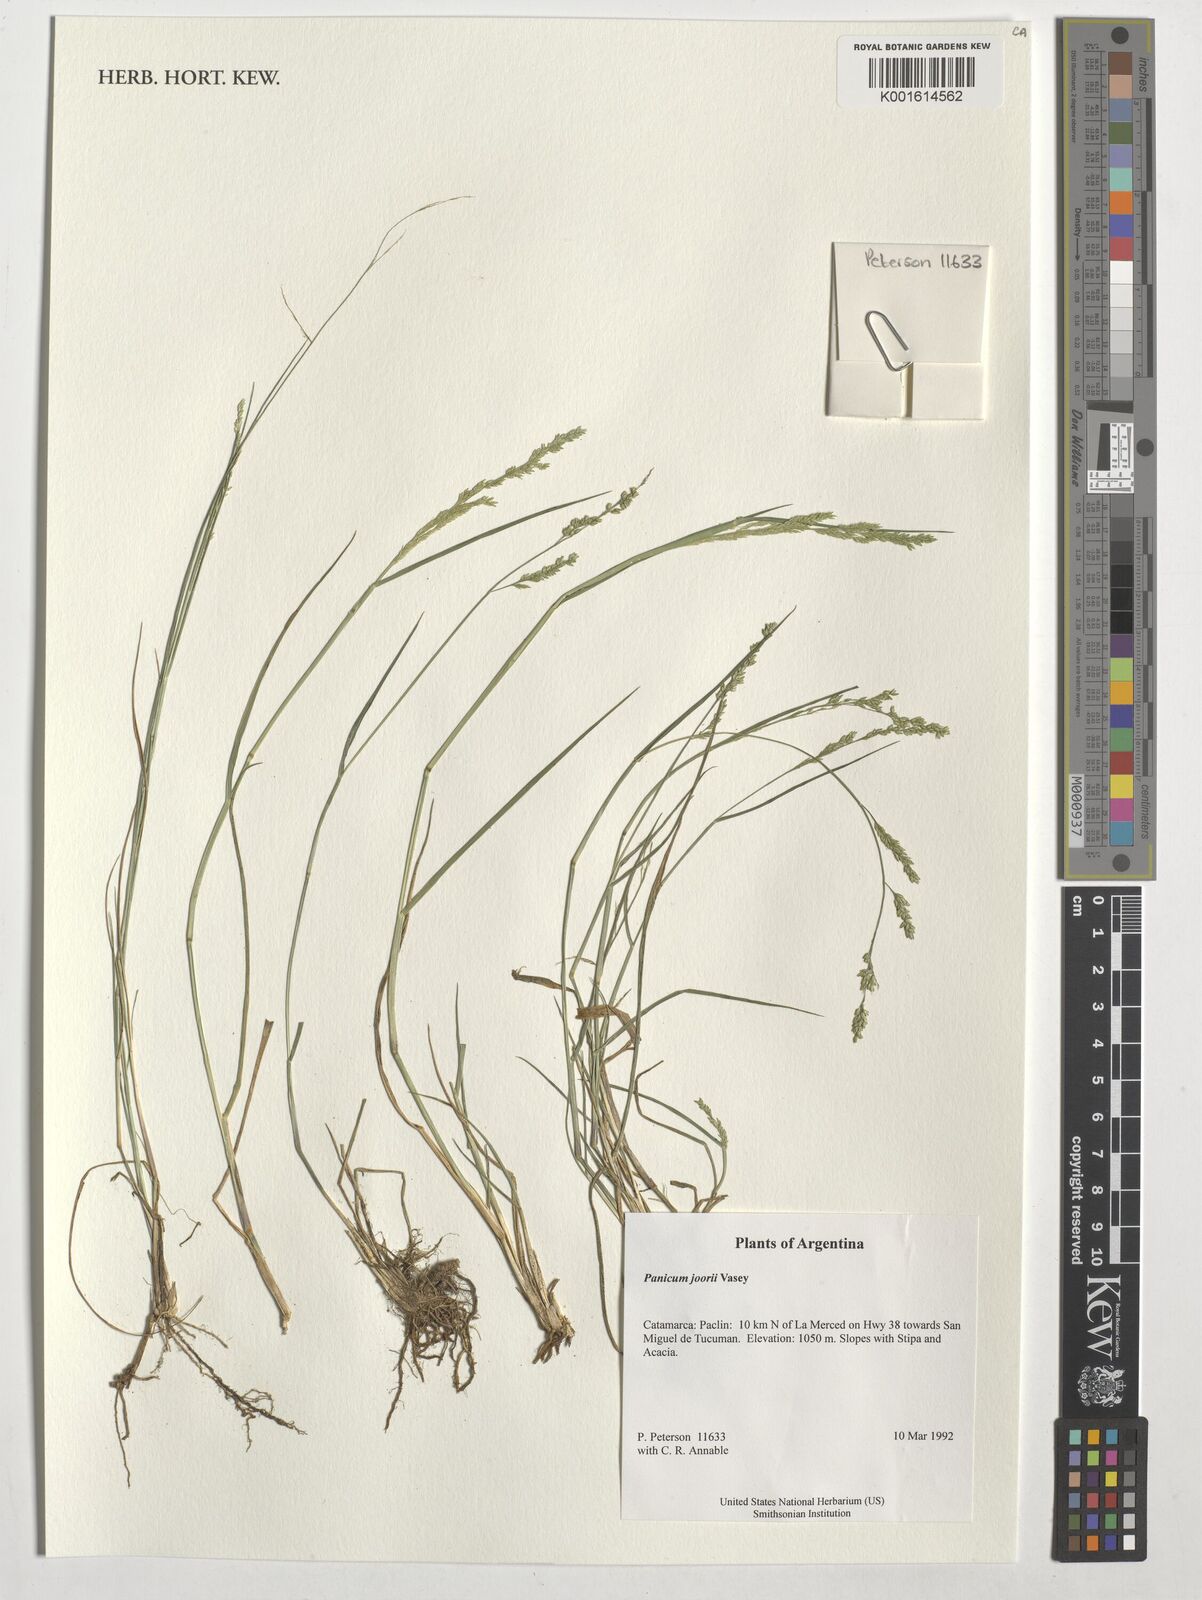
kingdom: Plantae
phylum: Tracheophyta
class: Liliopsida
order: Poales
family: Poaceae
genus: Dichanthelium
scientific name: Dichanthelium commutatum
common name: Variable witchgrass
